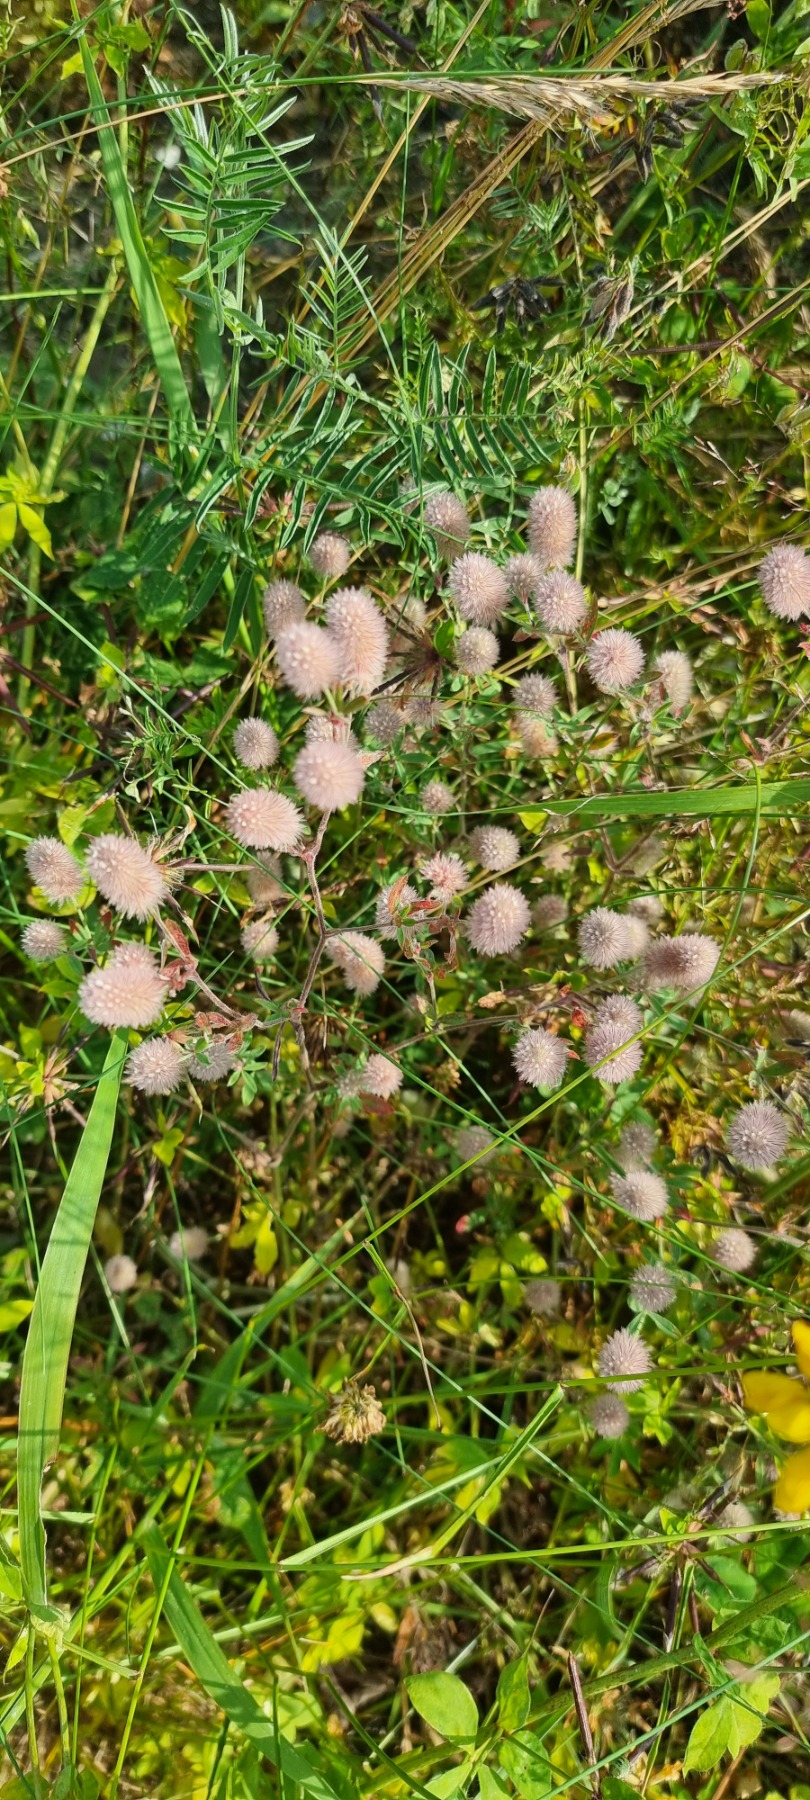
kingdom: Plantae
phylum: Tracheophyta
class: Magnoliopsida
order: Fabales
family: Fabaceae
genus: Trifolium
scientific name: Trifolium arvense
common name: Hare-kløver
